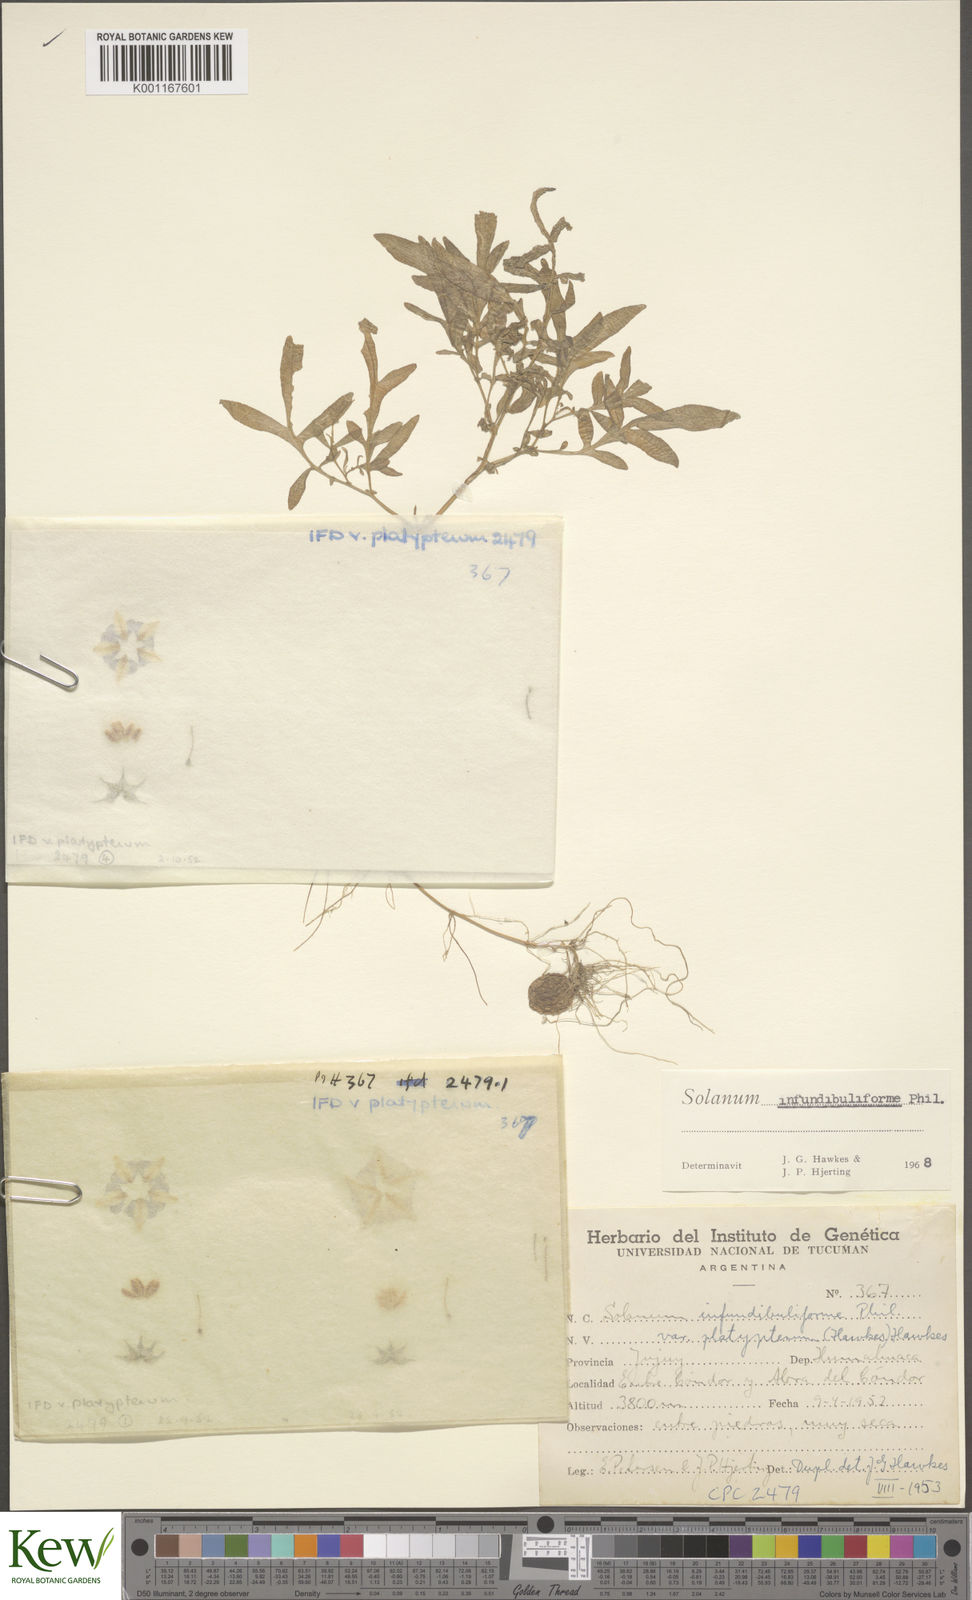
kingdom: Plantae
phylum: Tracheophyta
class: Magnoliopsida
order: Solanales
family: Solanaceae
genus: Solanum
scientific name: Solanum infundibuliforme
